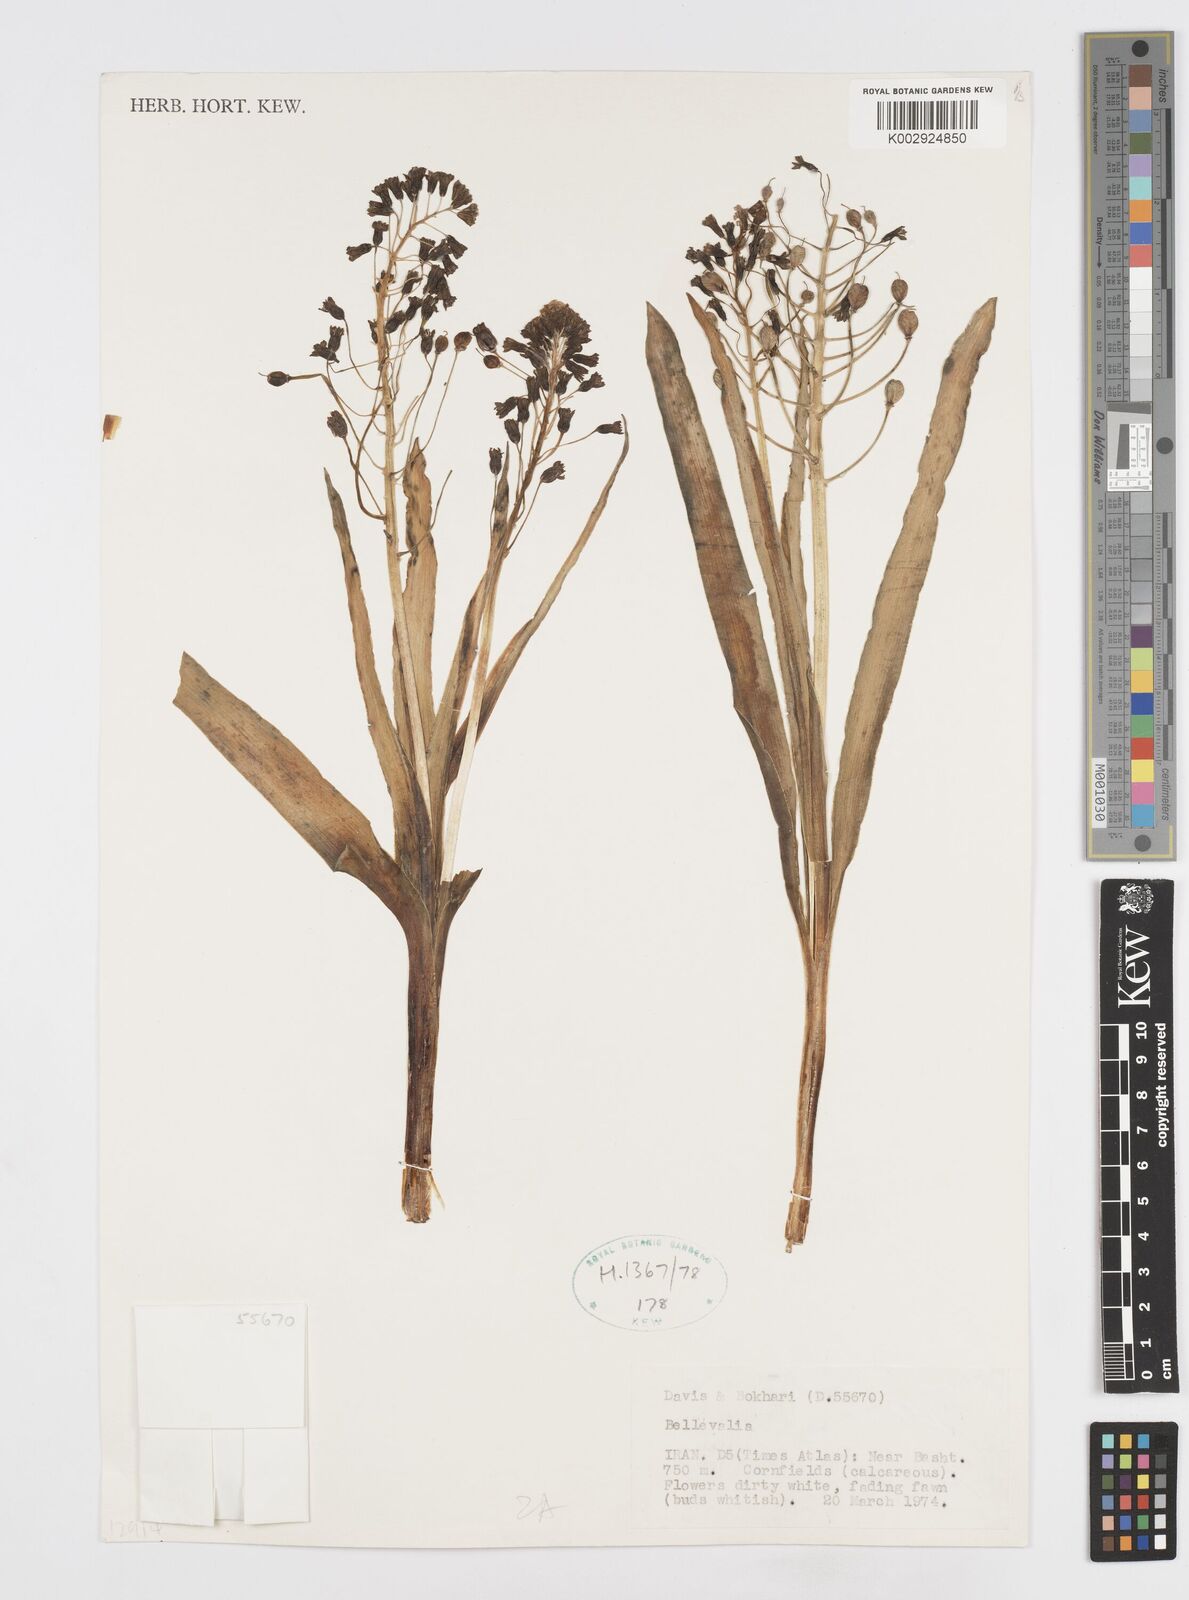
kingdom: Plantae
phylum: Tracheophyta
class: Liliopsida
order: Asparagales
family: Asparagaceae
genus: Bellevalia
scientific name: Bellevalia
